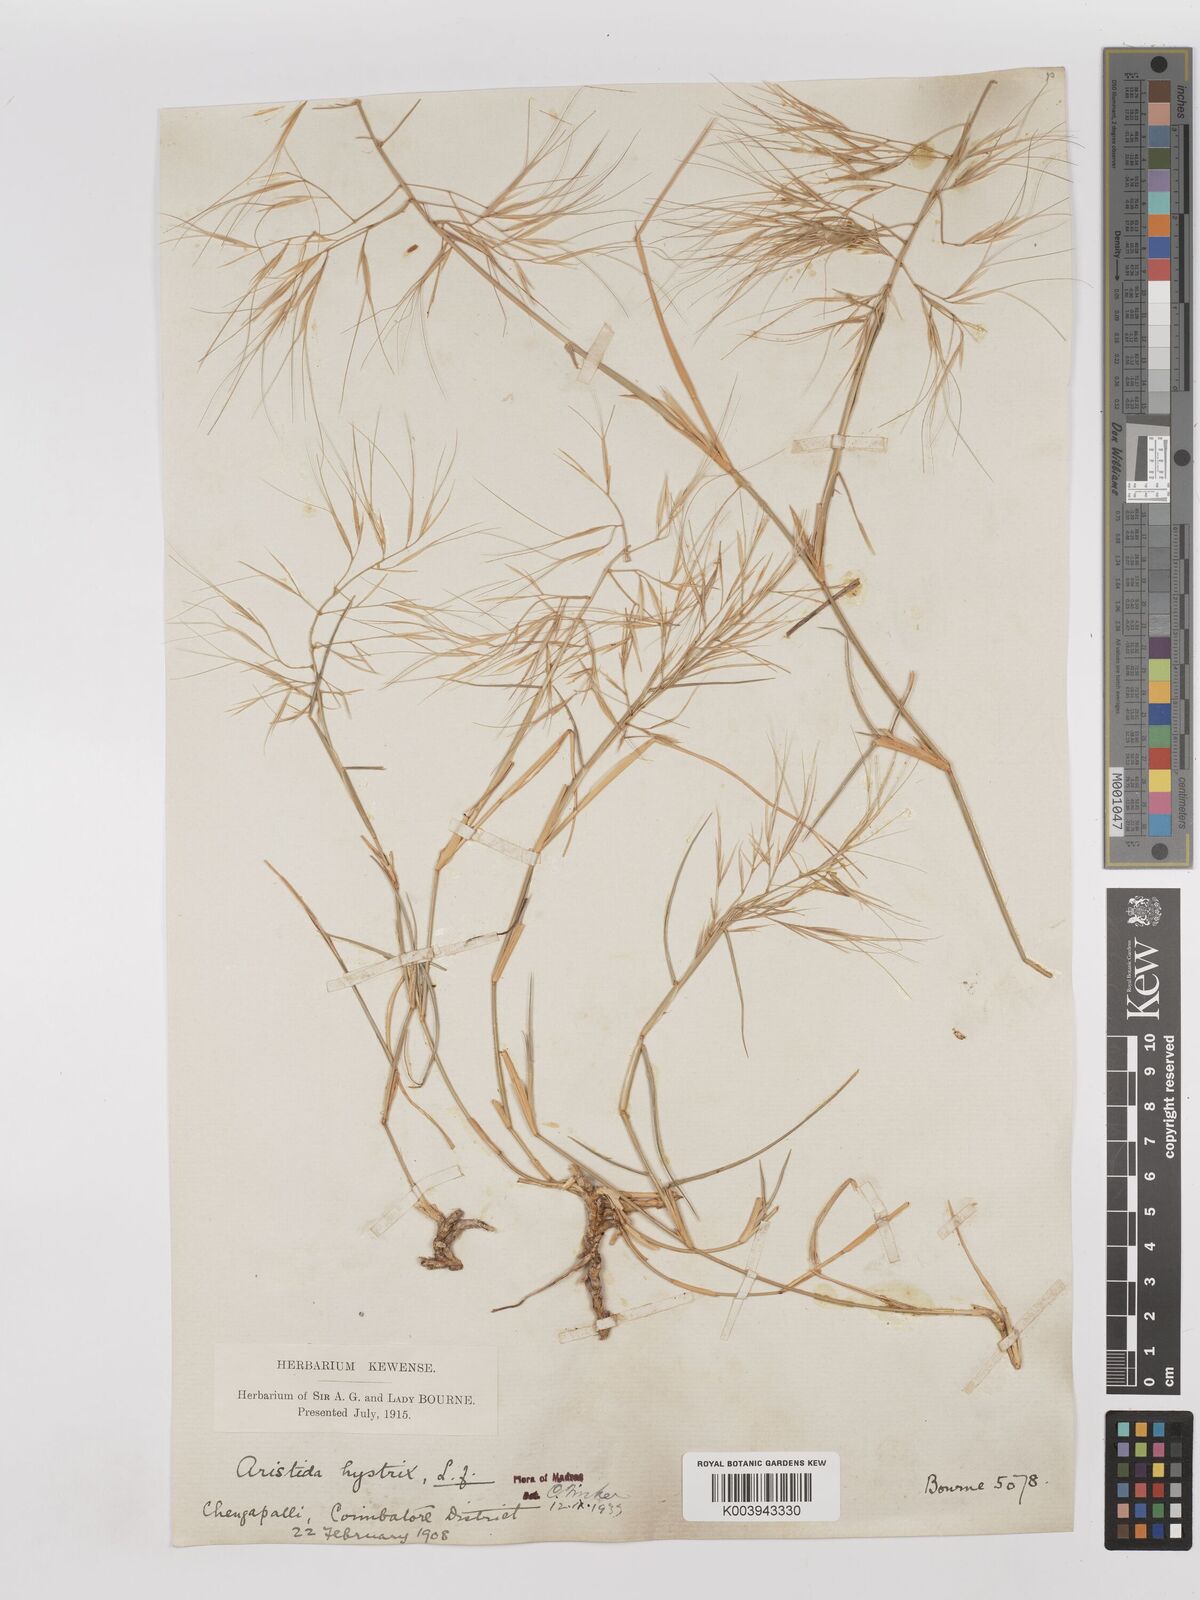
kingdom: Plantae
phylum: Tracheophyta
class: Liliopsida
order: Poales
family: Poaceae
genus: Aristida
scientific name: Aristida hystrix
